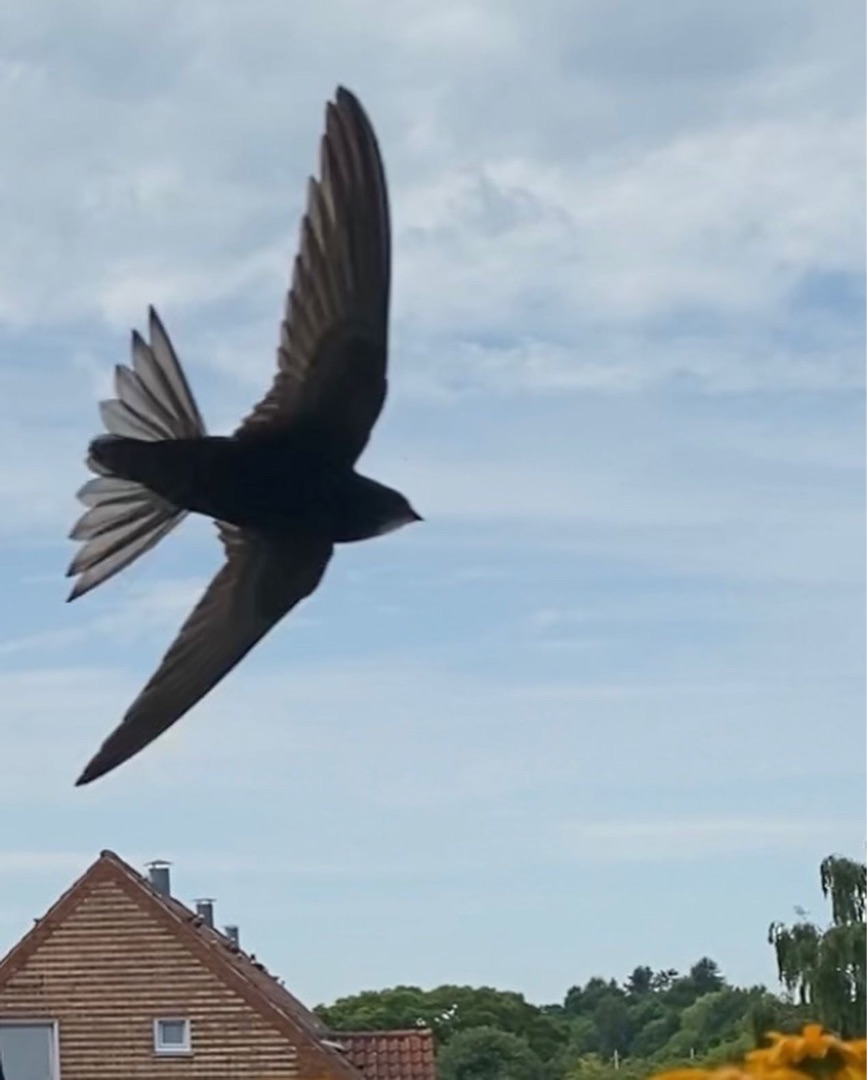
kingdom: Animalia
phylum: Chordata
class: Aves
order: Apodiformes
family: Apodidae
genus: Apus
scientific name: Apus apus
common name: Mursejler
